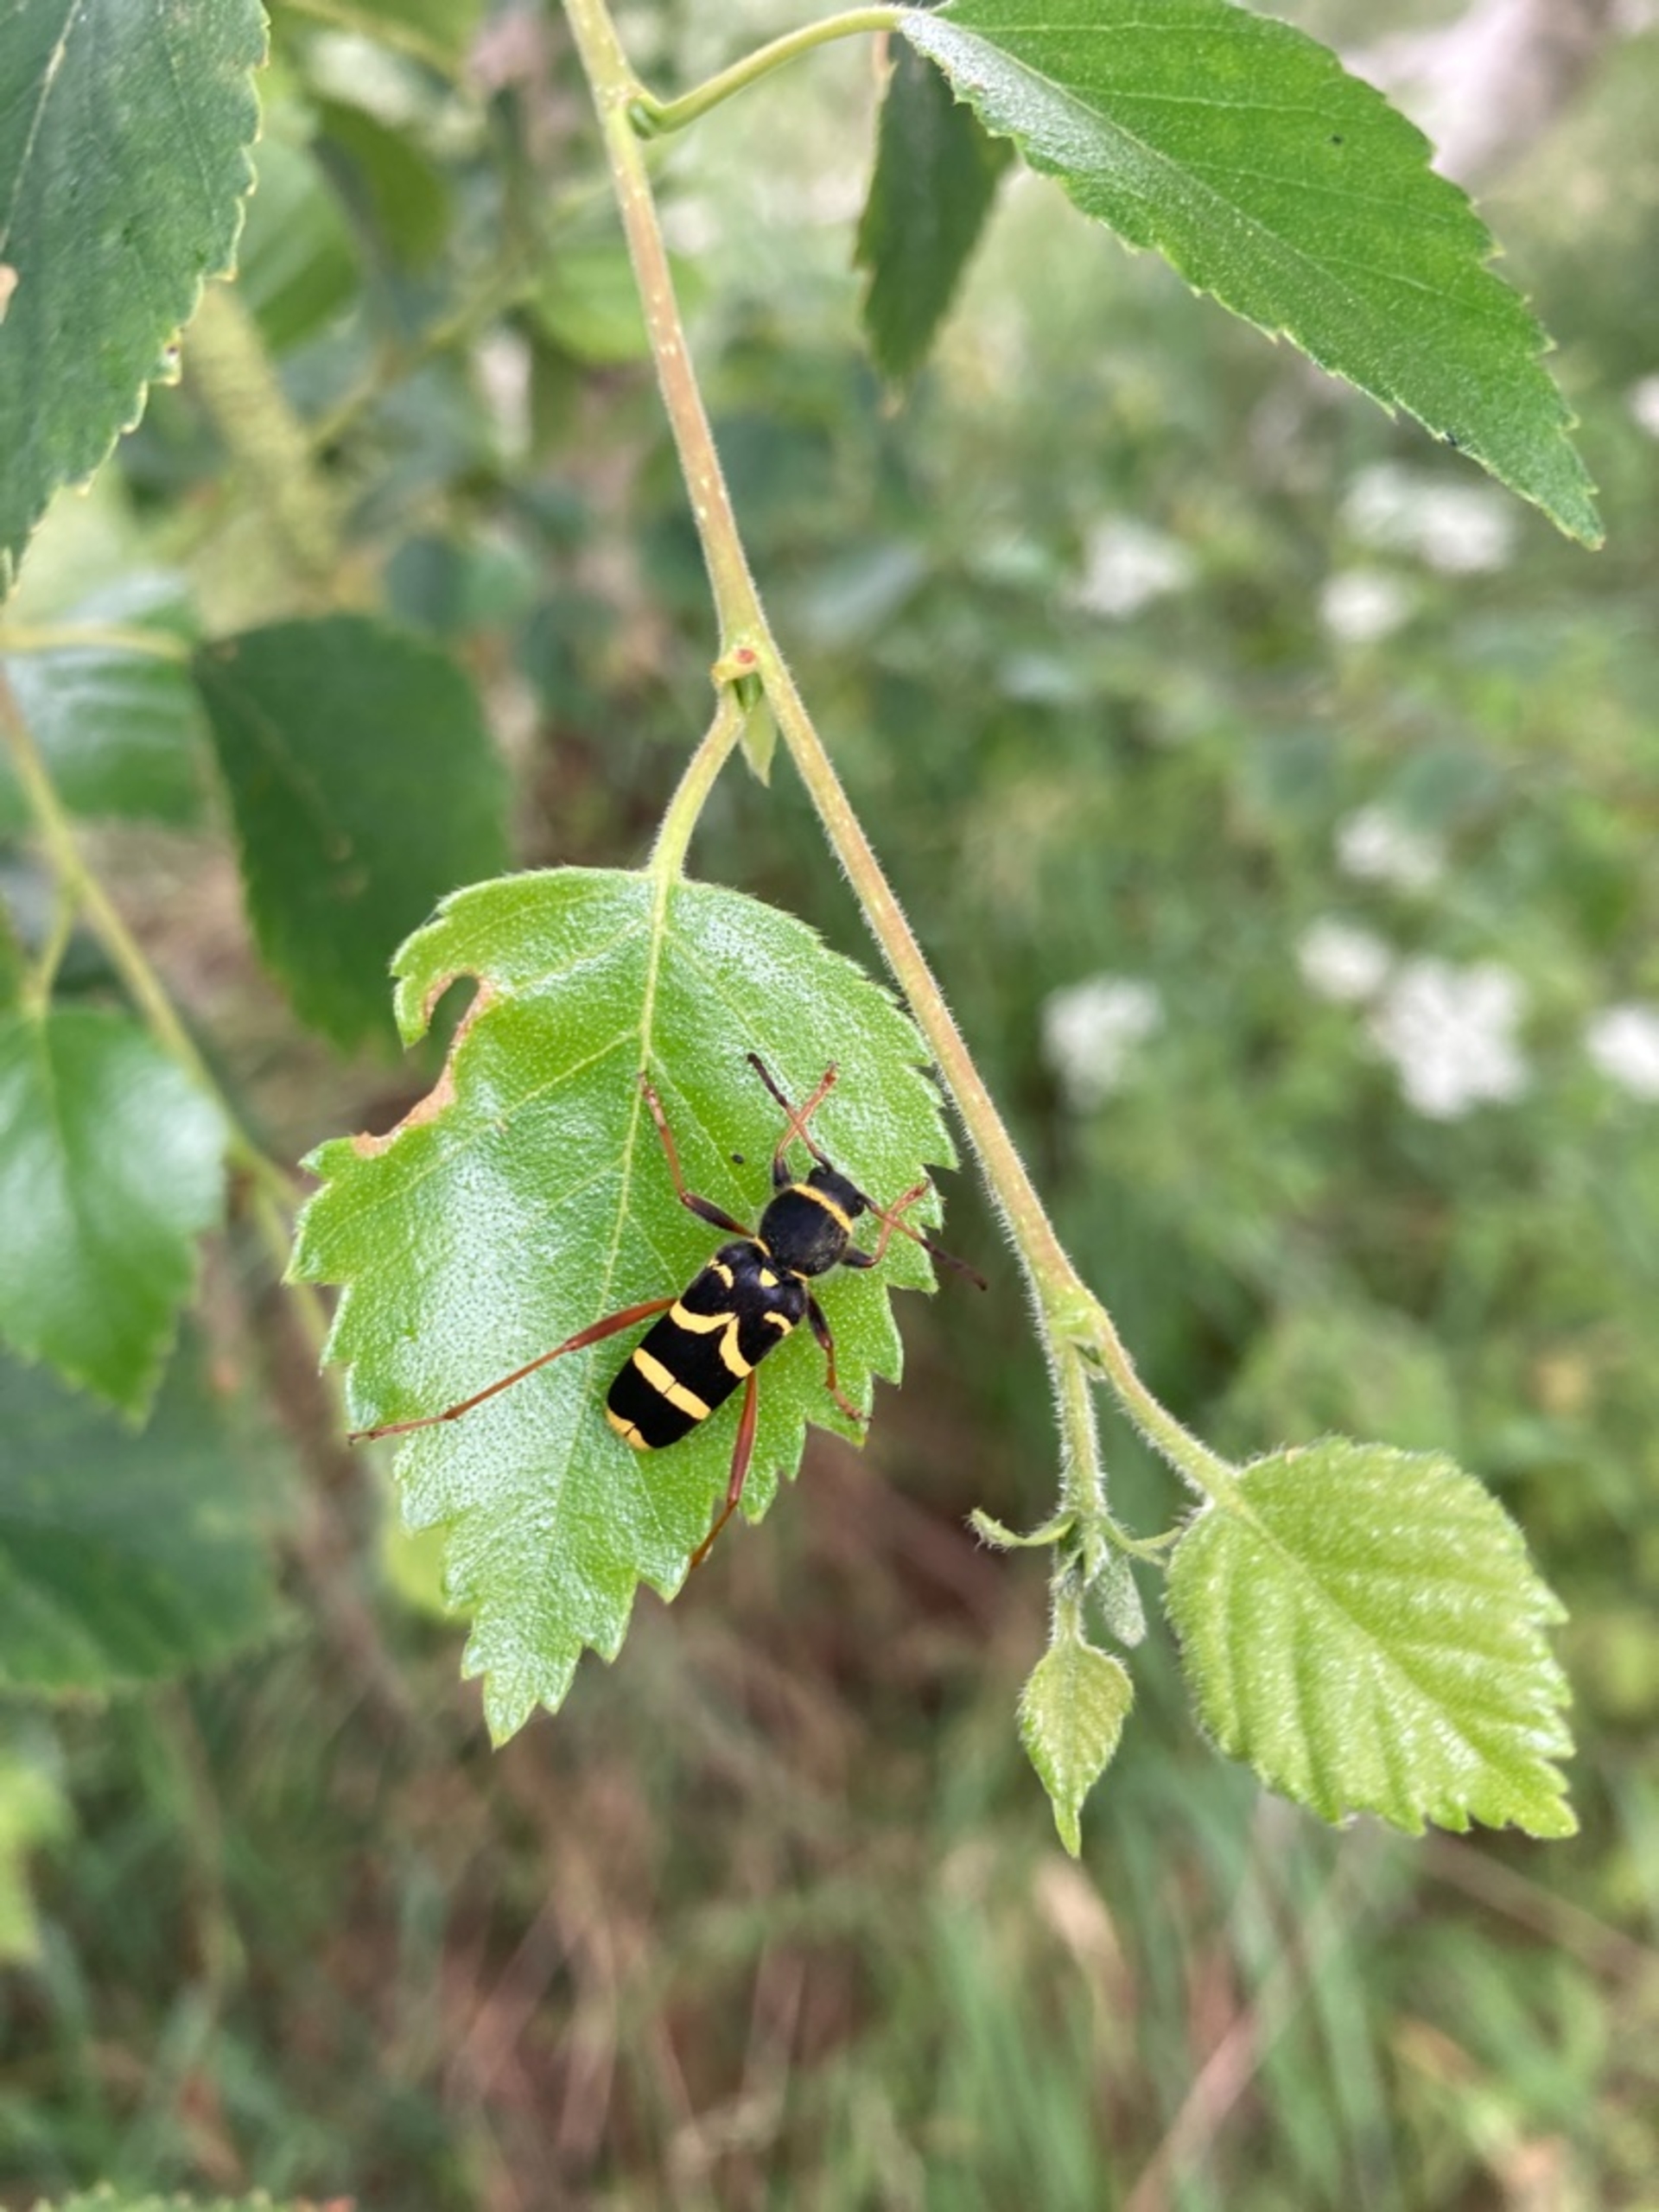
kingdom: Animalia
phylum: Arthropoda
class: Insecta
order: Coleoptera
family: Cerambycidae
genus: Clytus
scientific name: Clytus arietis
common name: Lille hvepsebuk
